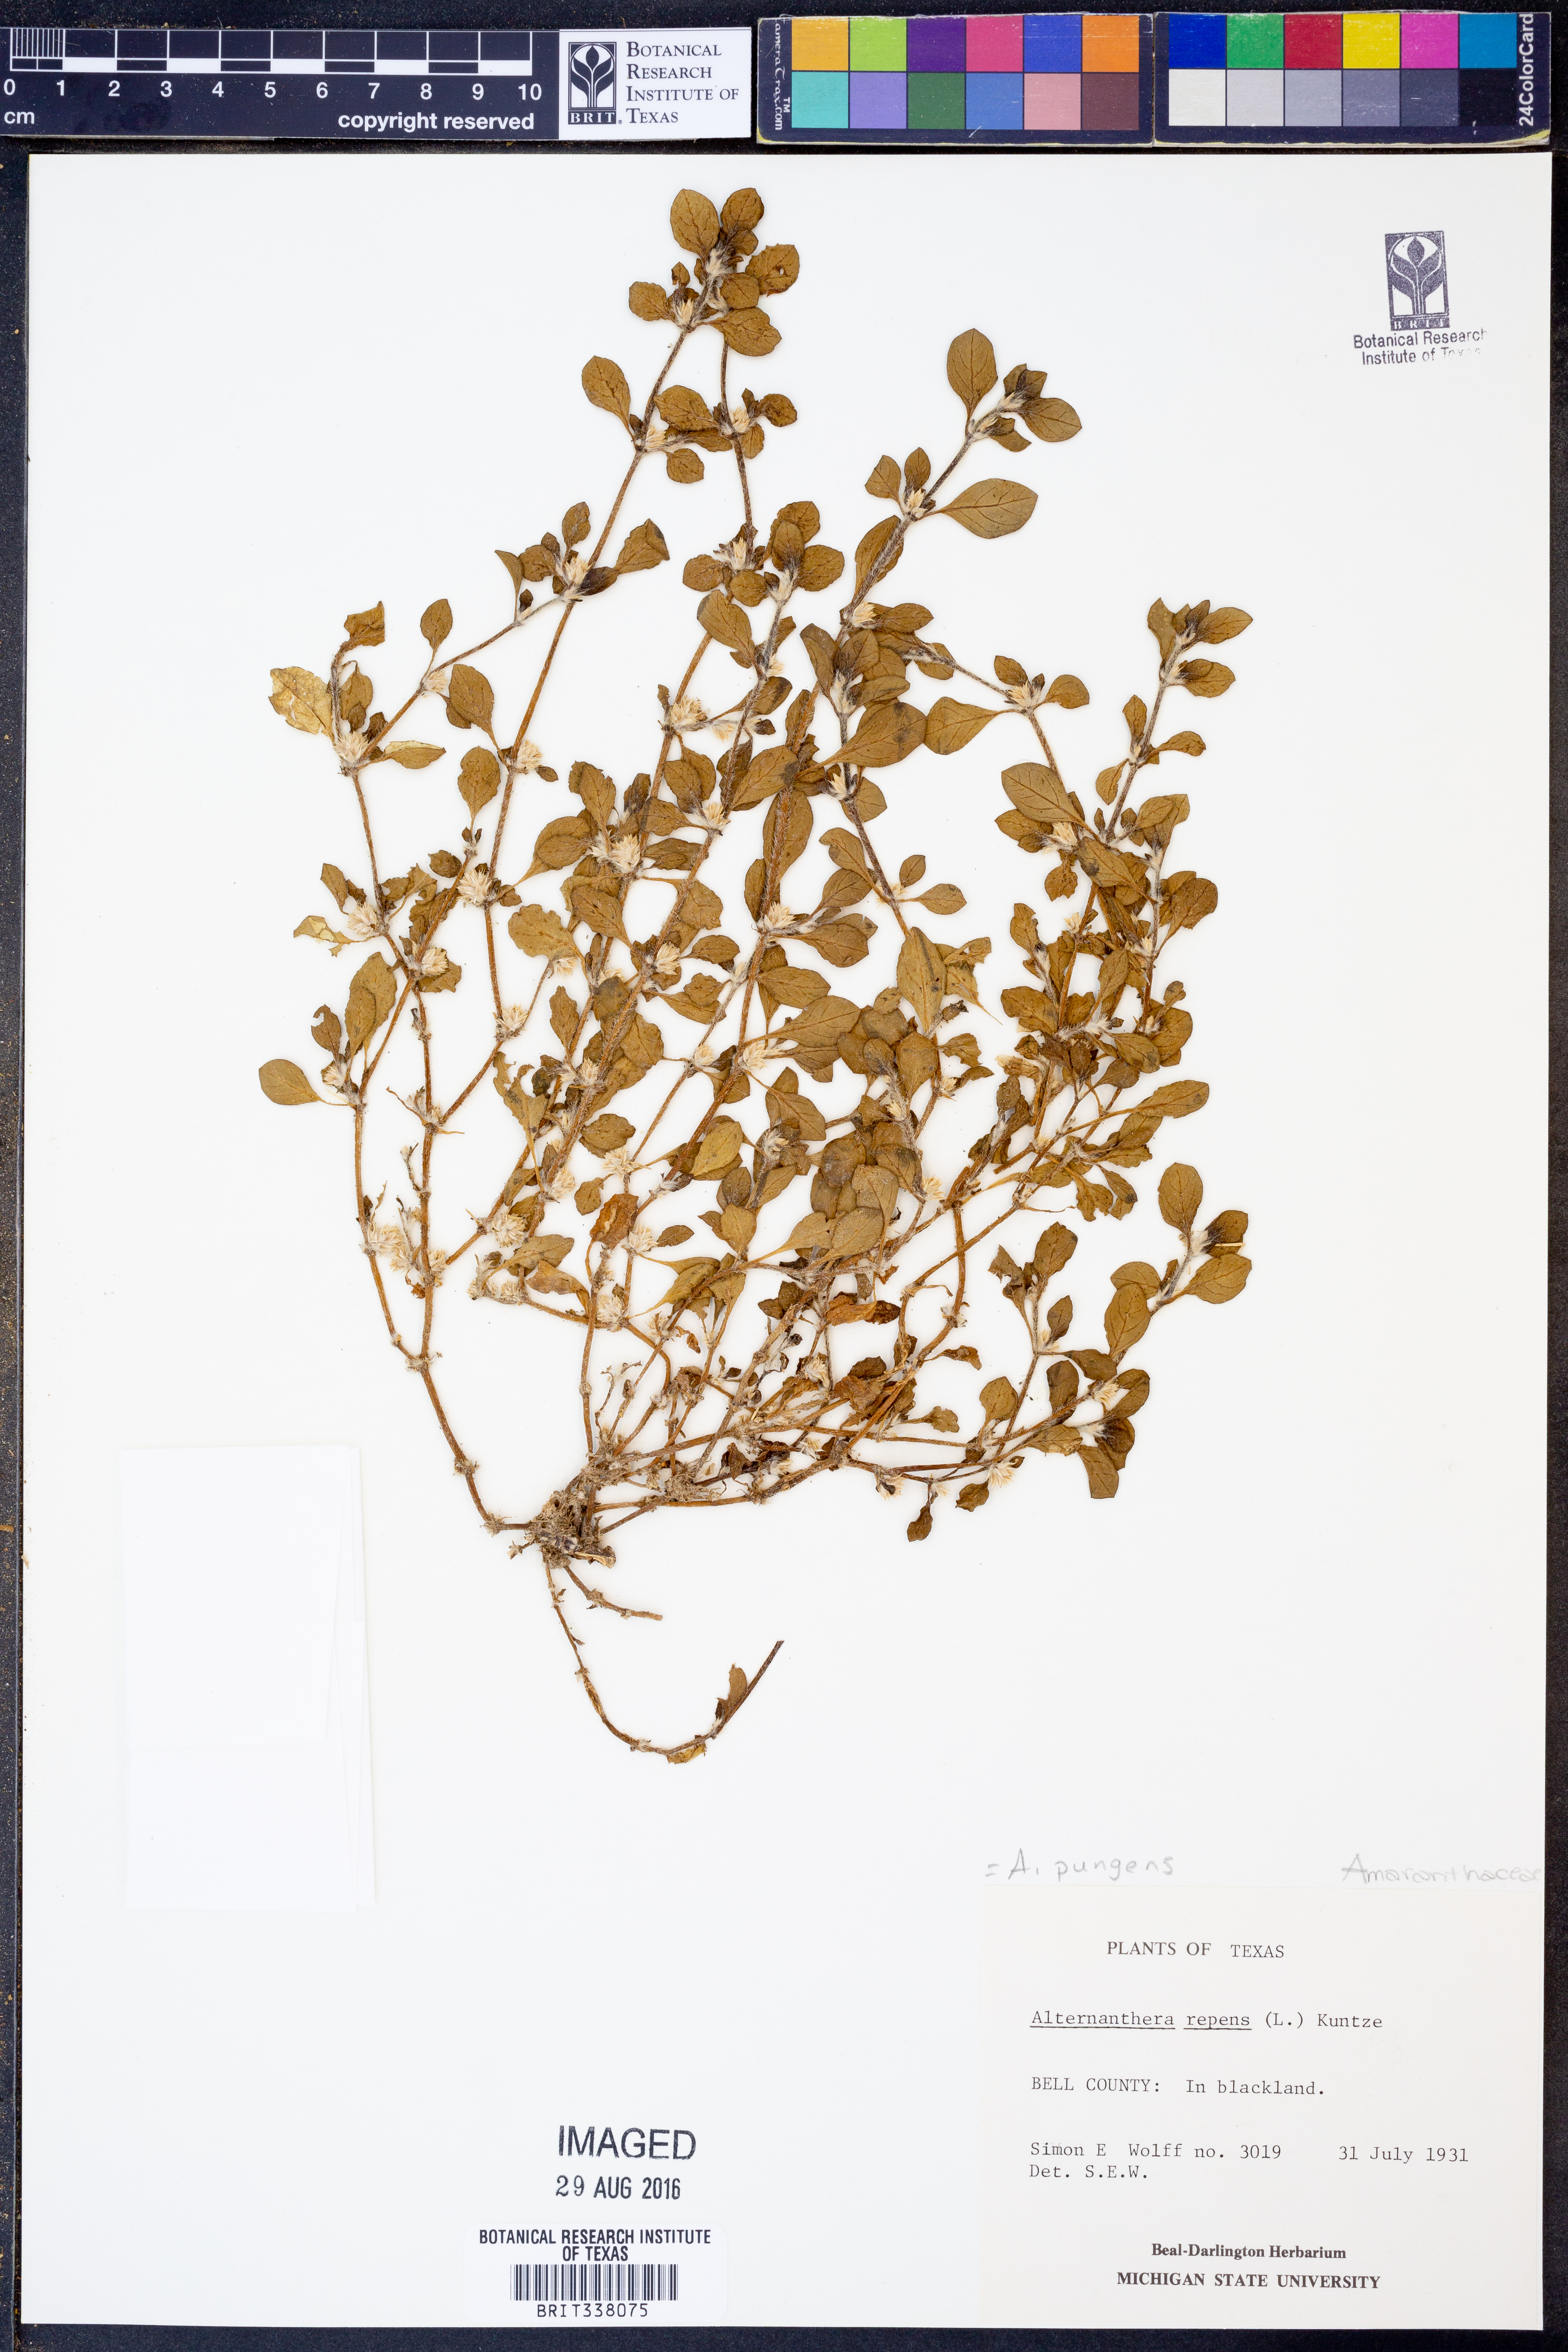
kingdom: Plantae
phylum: Tracheophyta
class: Magnoliopsida
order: Caryophyllales
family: Amaranthaceae
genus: Alternanthera
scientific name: Alternanthera pungens
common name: Khakiweed
